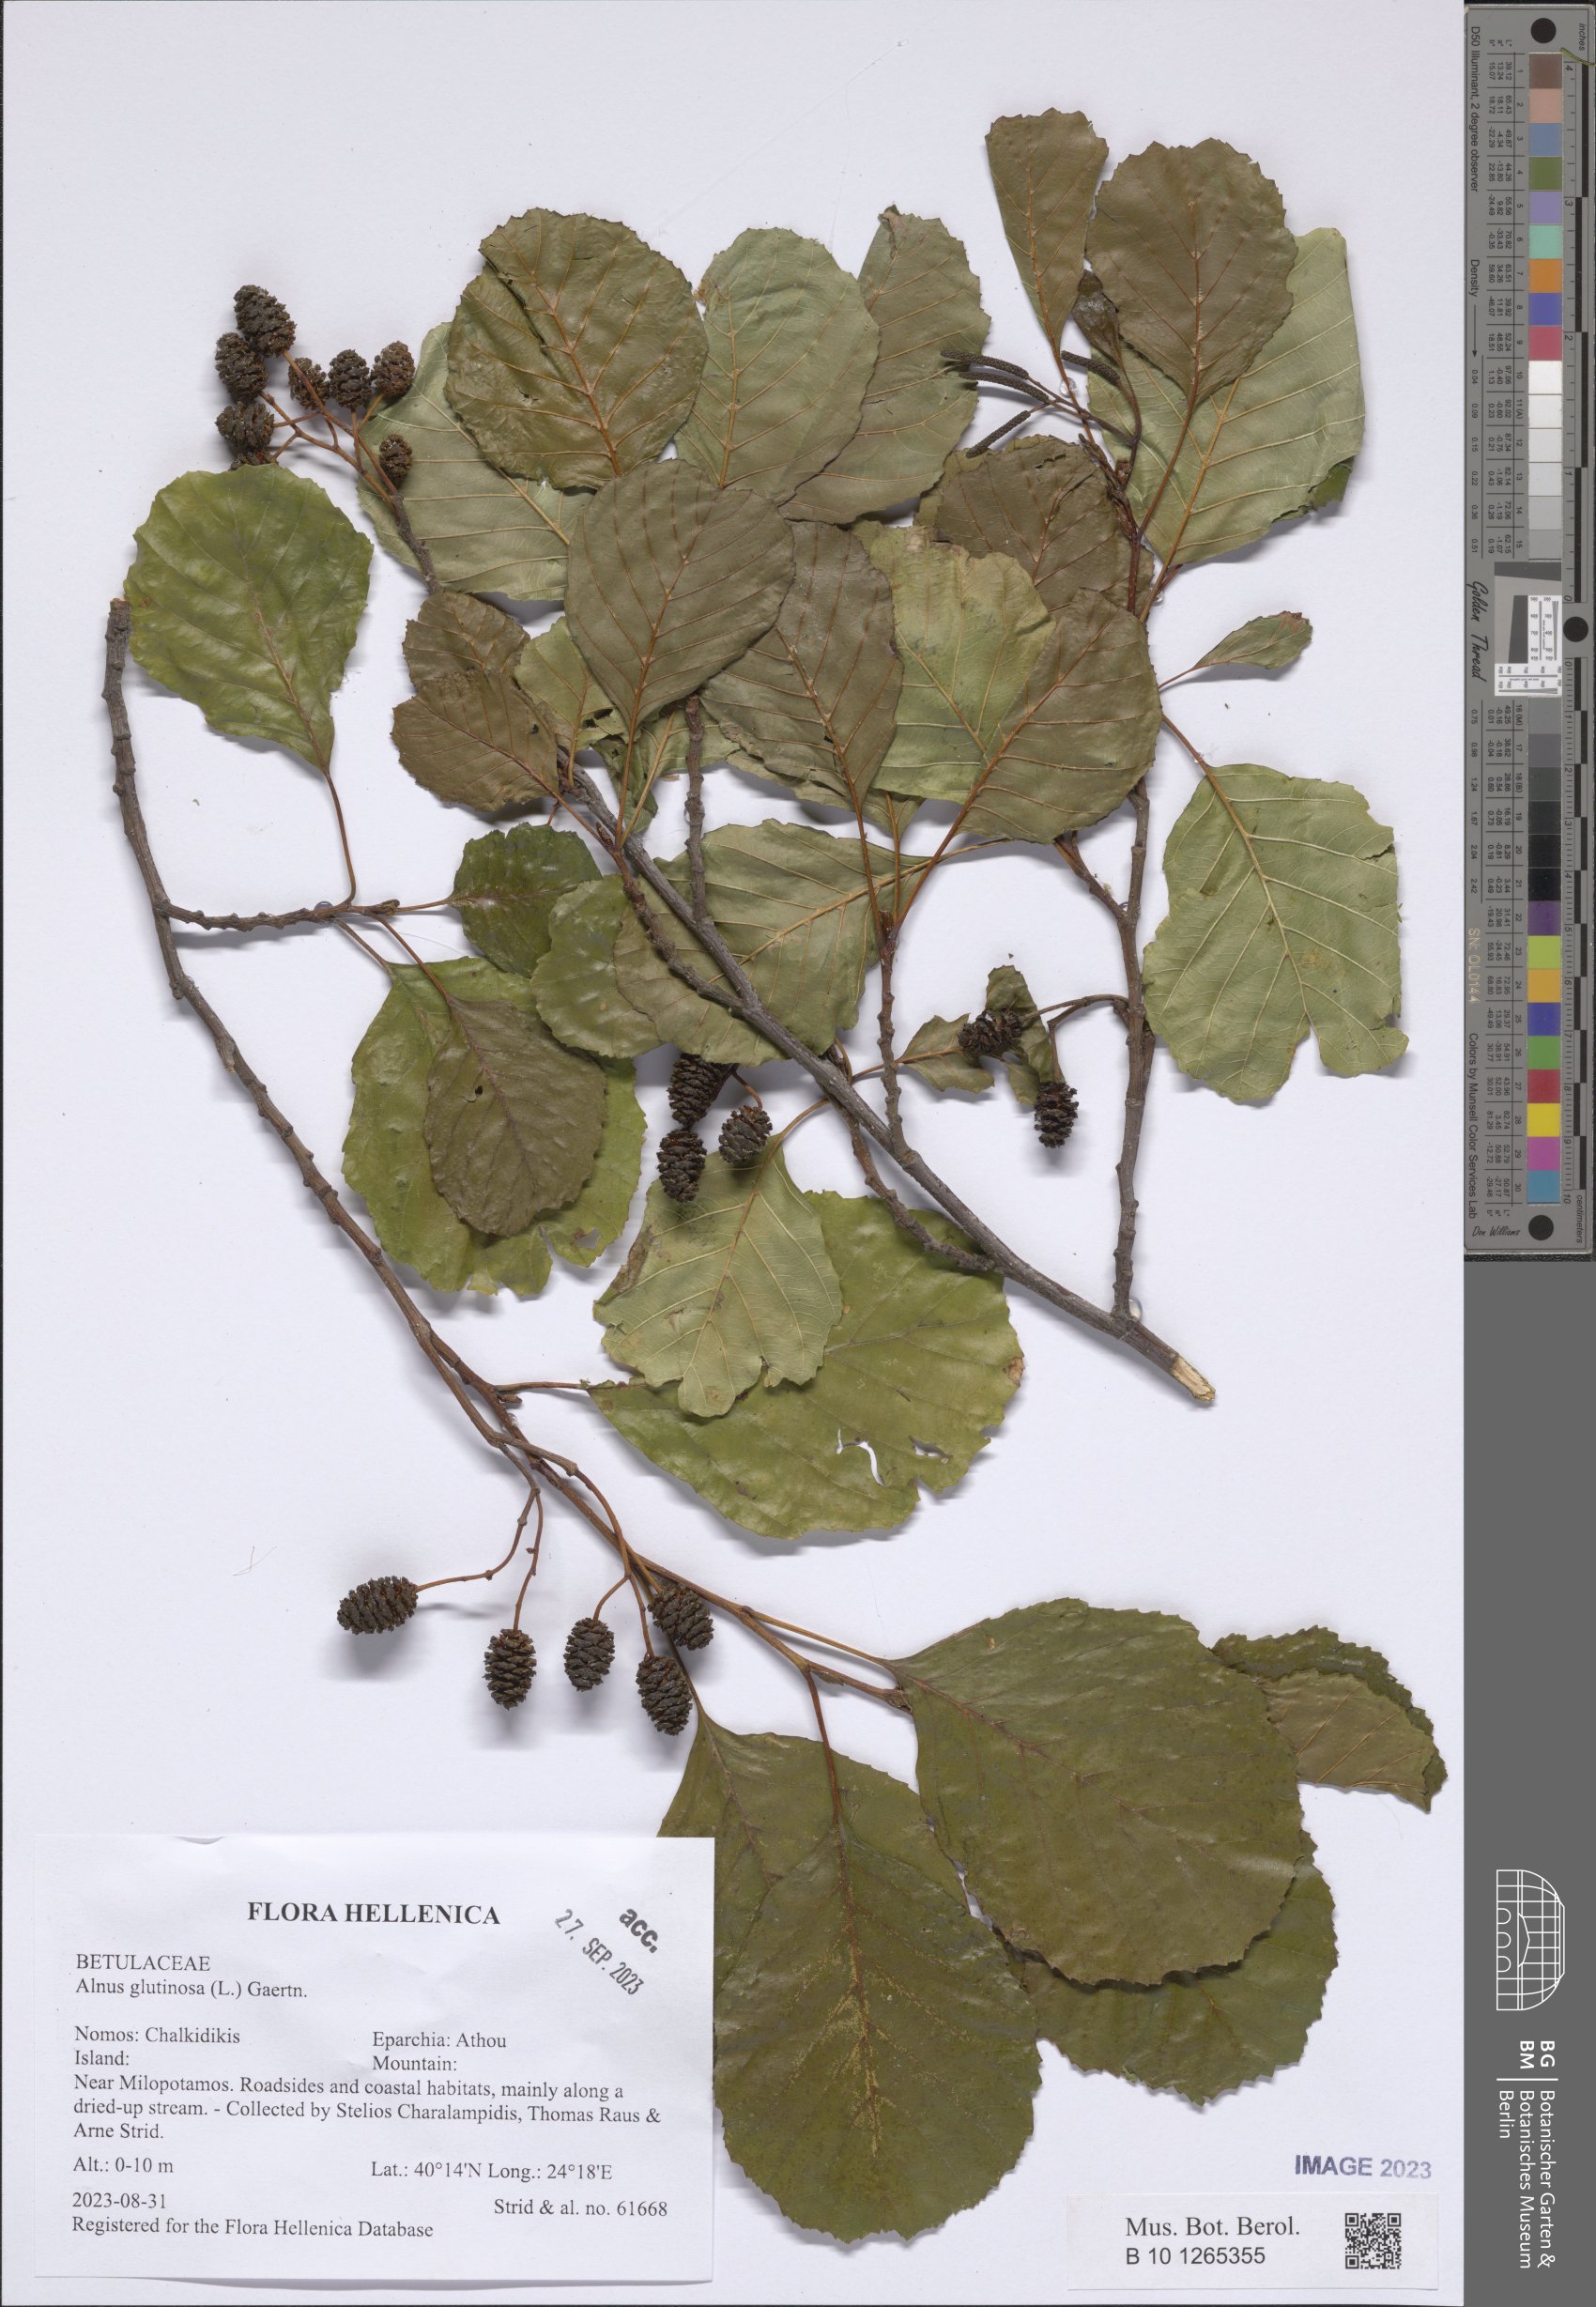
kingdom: Plantae
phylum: Tracheophyta
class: Magnoliopsida
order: Fagales
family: Betulaceae
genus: Alnus
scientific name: Alnus glutinosa
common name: Black alder
